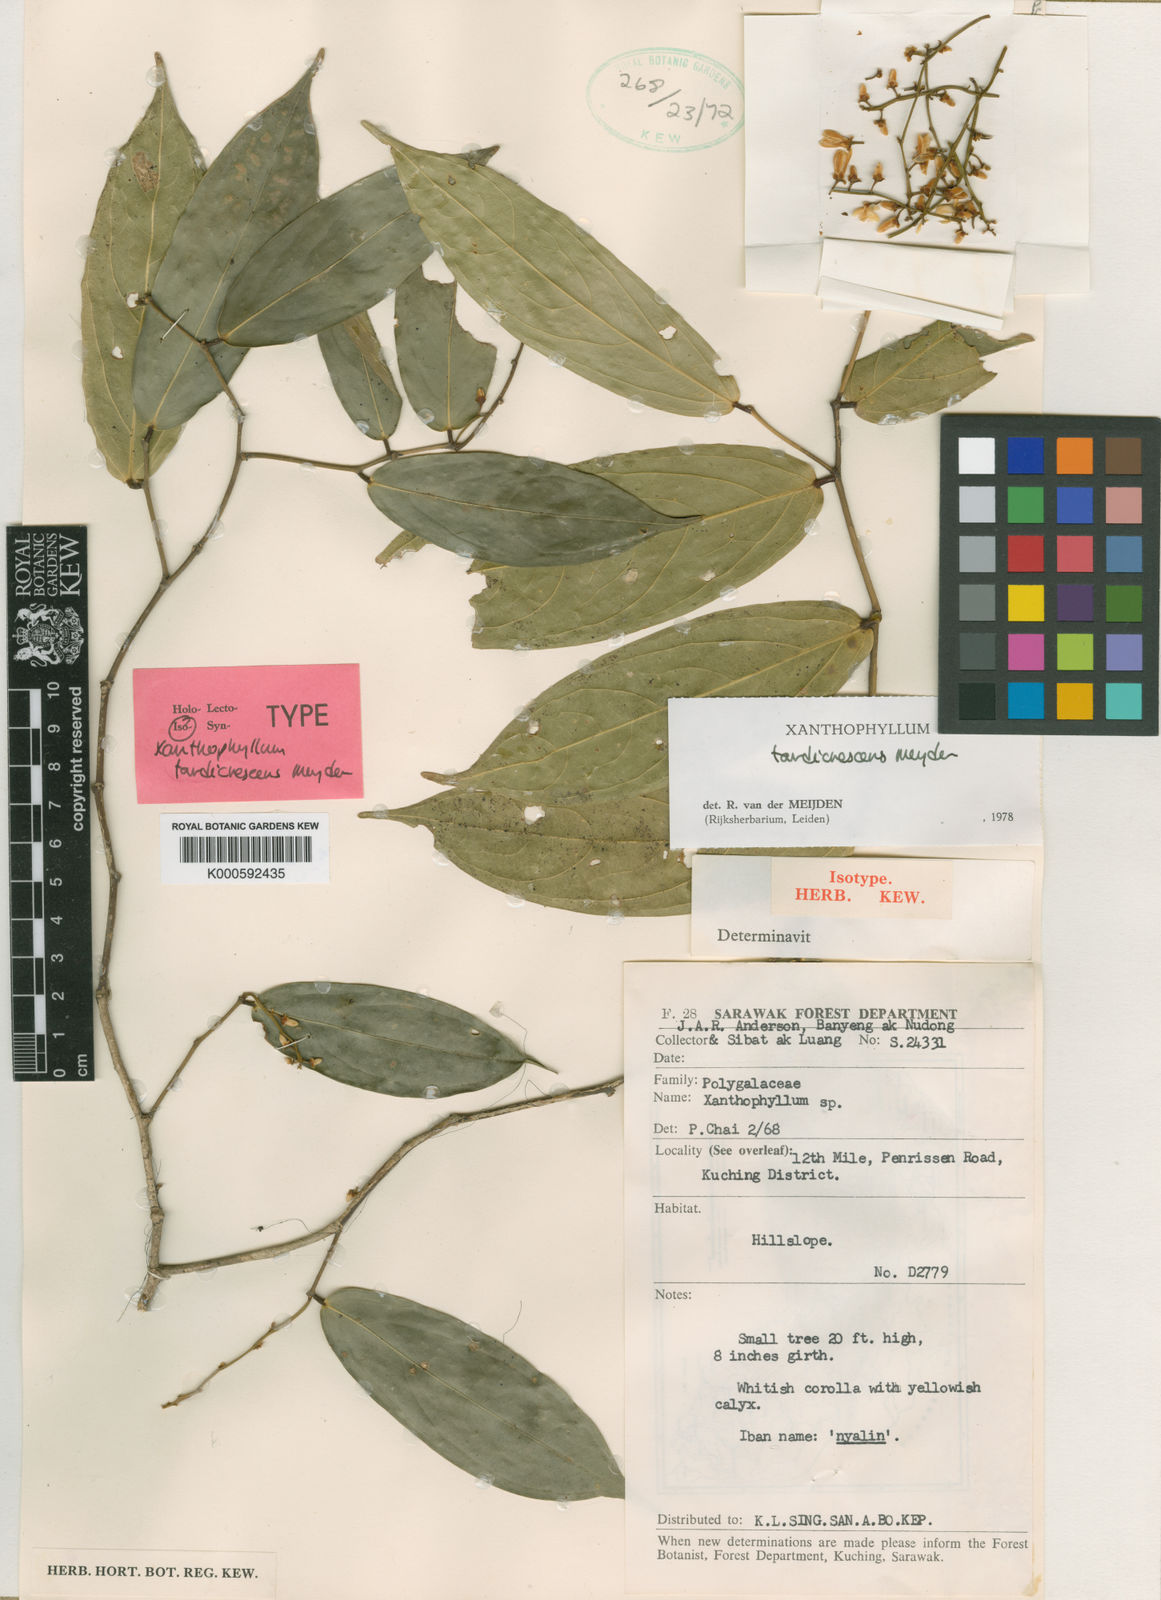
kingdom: Plantae
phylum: Tracheophyta
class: Magnoliopsida
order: Fabales
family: Polygalaceae
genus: Xanthophyllum
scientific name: Xanthophyllum tardicrescens
